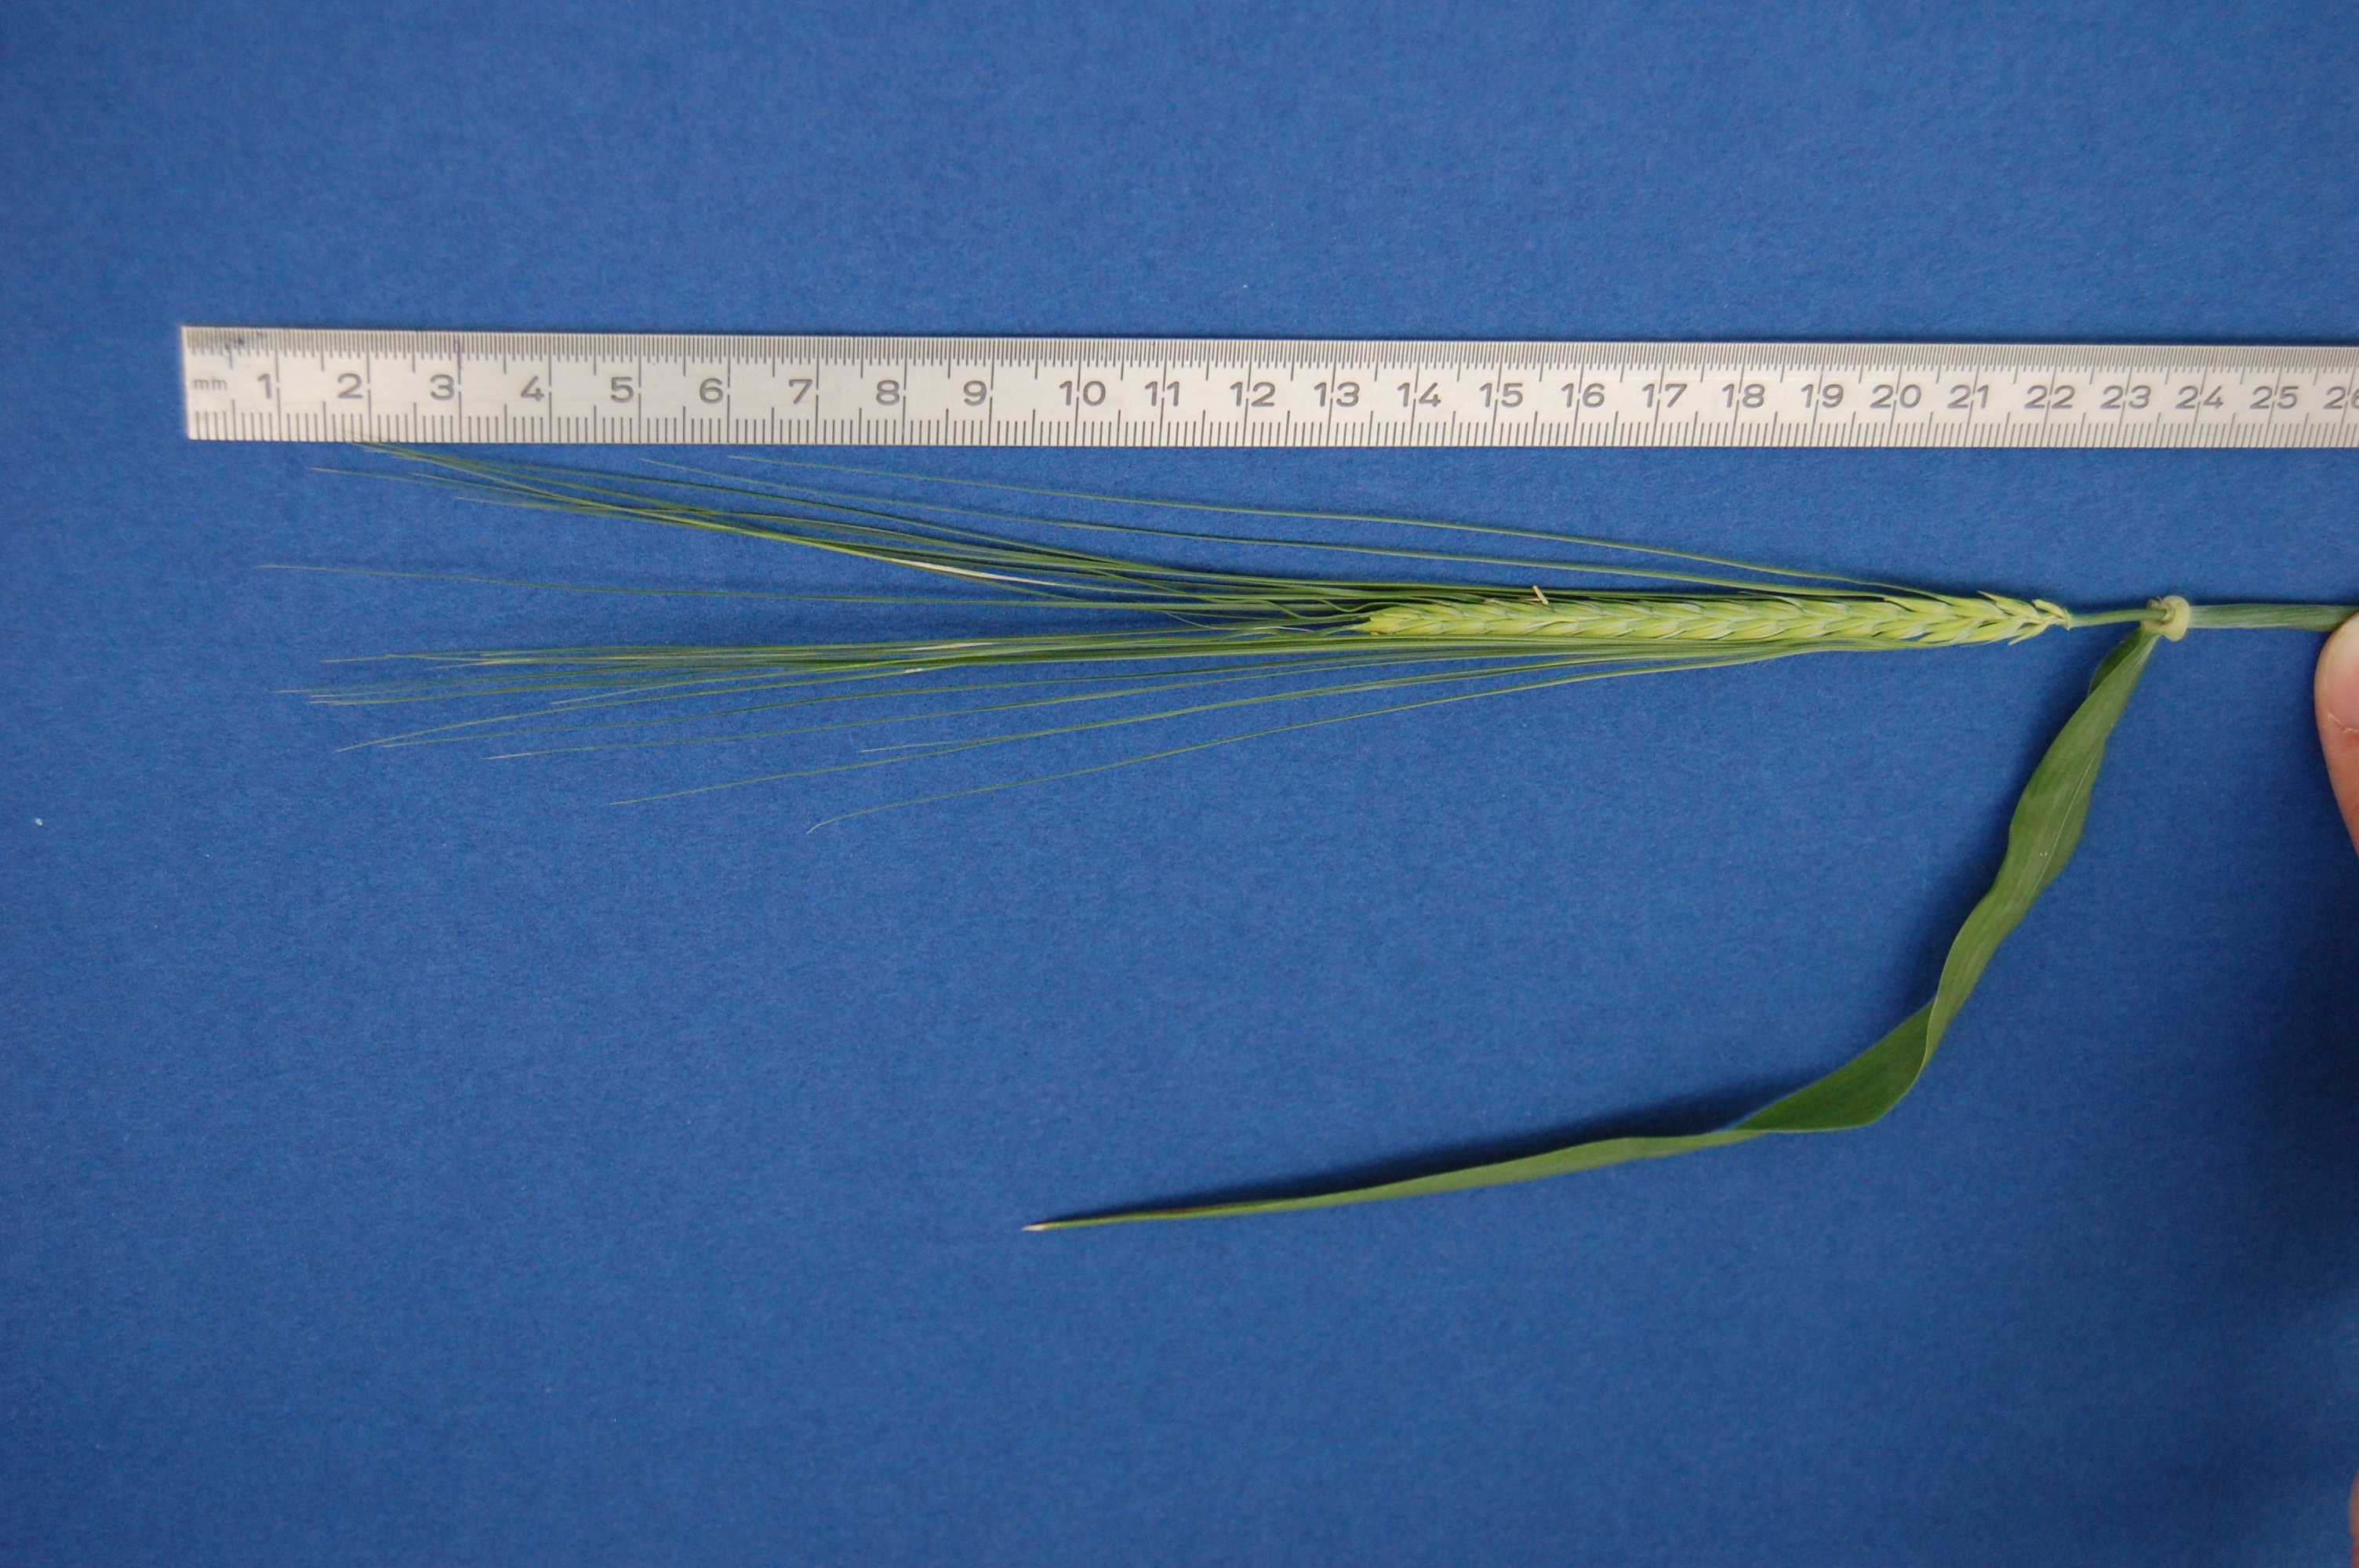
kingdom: Plantae
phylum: Tracheophyta
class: Liliopsida
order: Poales
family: Poaceae
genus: Hordeum
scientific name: Hordeum vulgare
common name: Common barley
